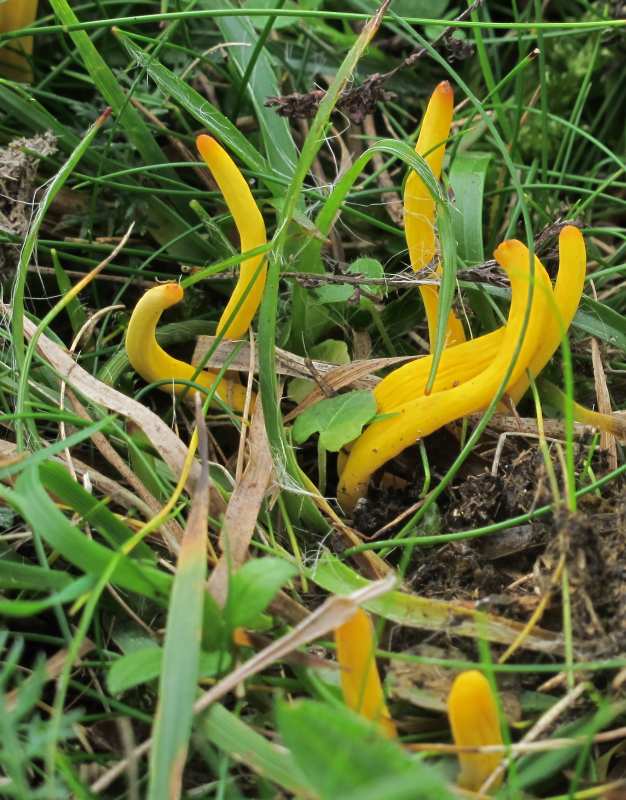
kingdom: Fungi
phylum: Basidiomycota
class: Agaricomycetes
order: Agaricales
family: Clavariaceae
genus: Clavulinopsis
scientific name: Clavulinopsis helvola
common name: orangegul køllesvamp
